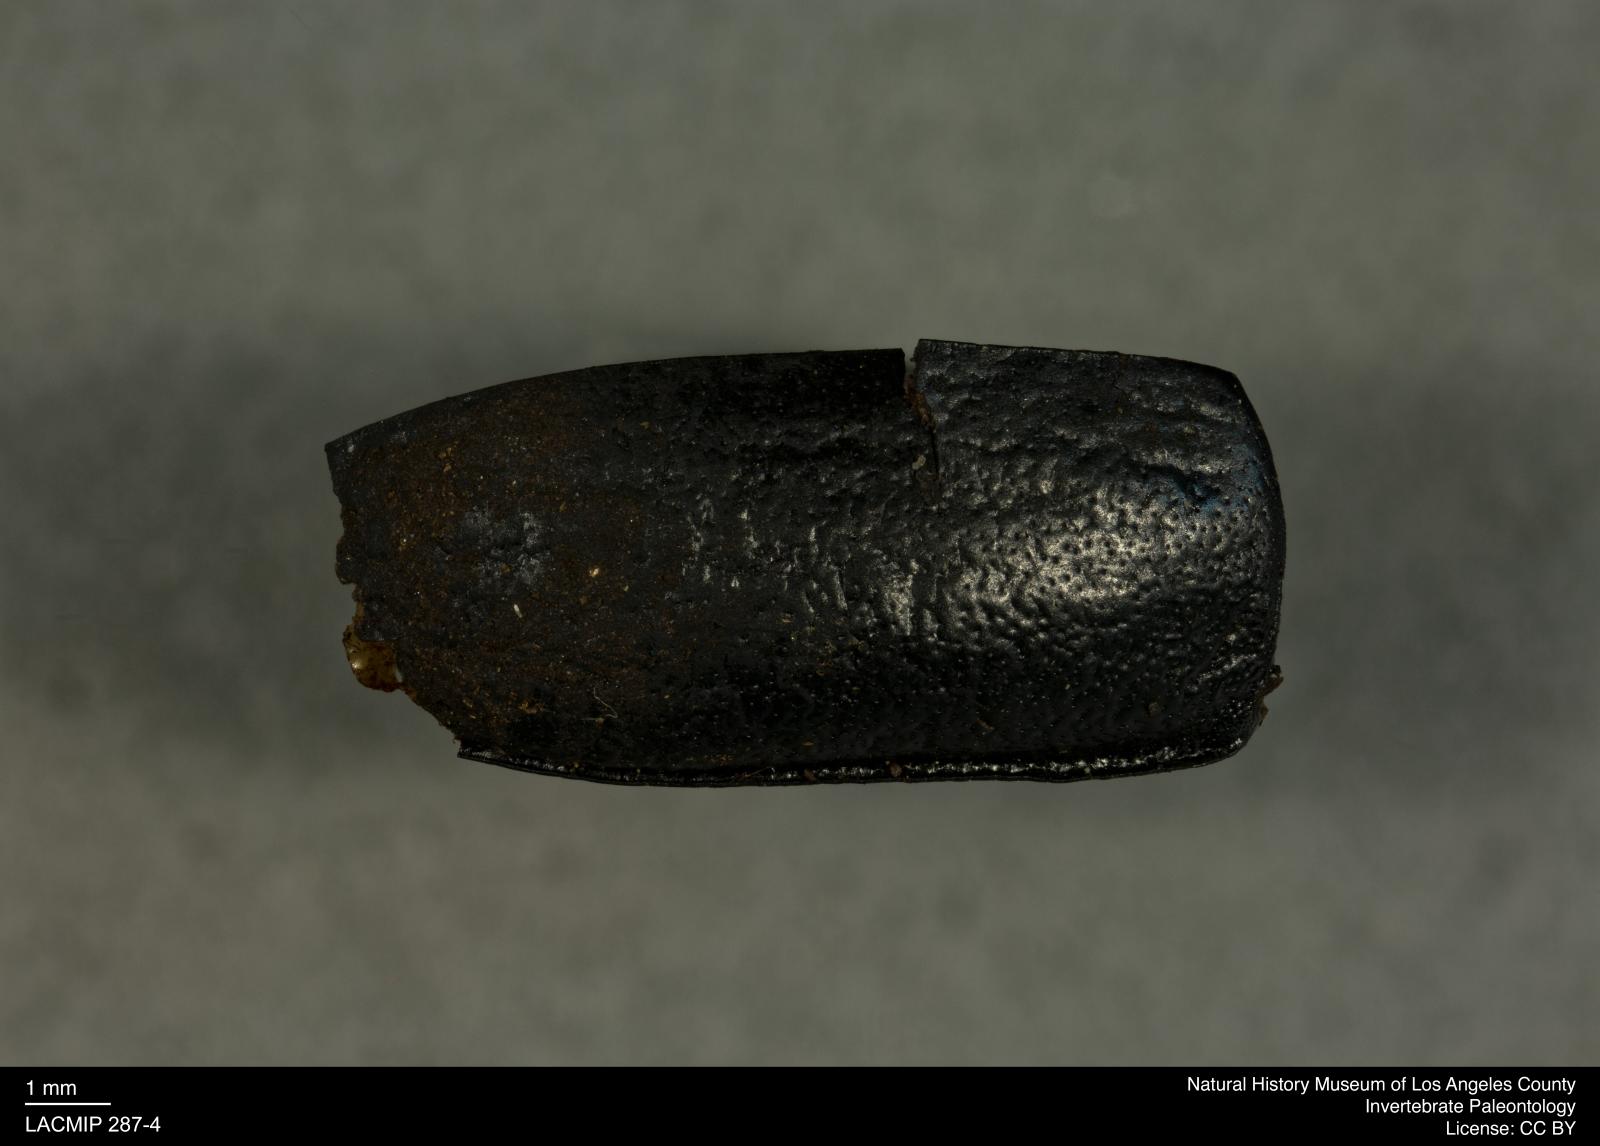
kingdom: Animalia
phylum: Arthropoda
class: Insecta
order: Coleoptera
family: Tenebrionidae
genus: Coniontis
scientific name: Coniontis abdominalis
